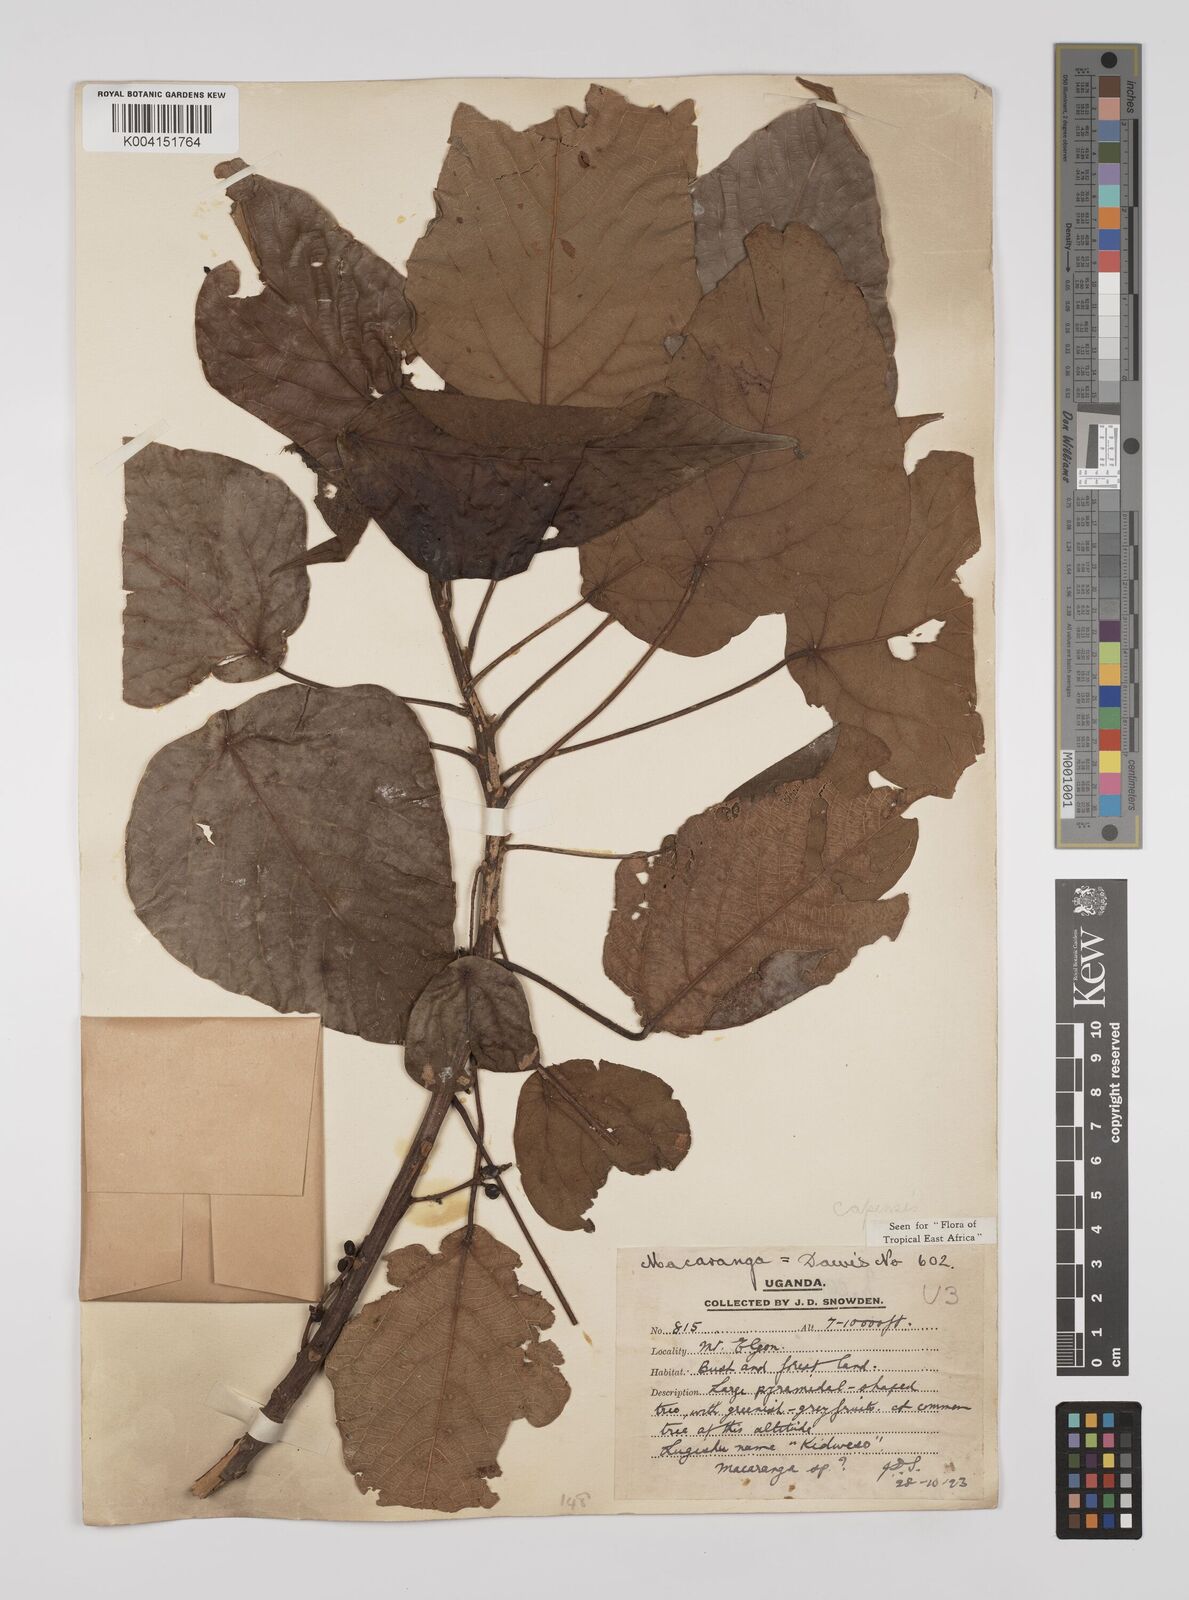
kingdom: Plantae
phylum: Tracheophyta
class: Magnoliopsida
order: Malpighiales
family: Euphorbiaceae
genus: Macaranga
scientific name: Macaranga capensis
